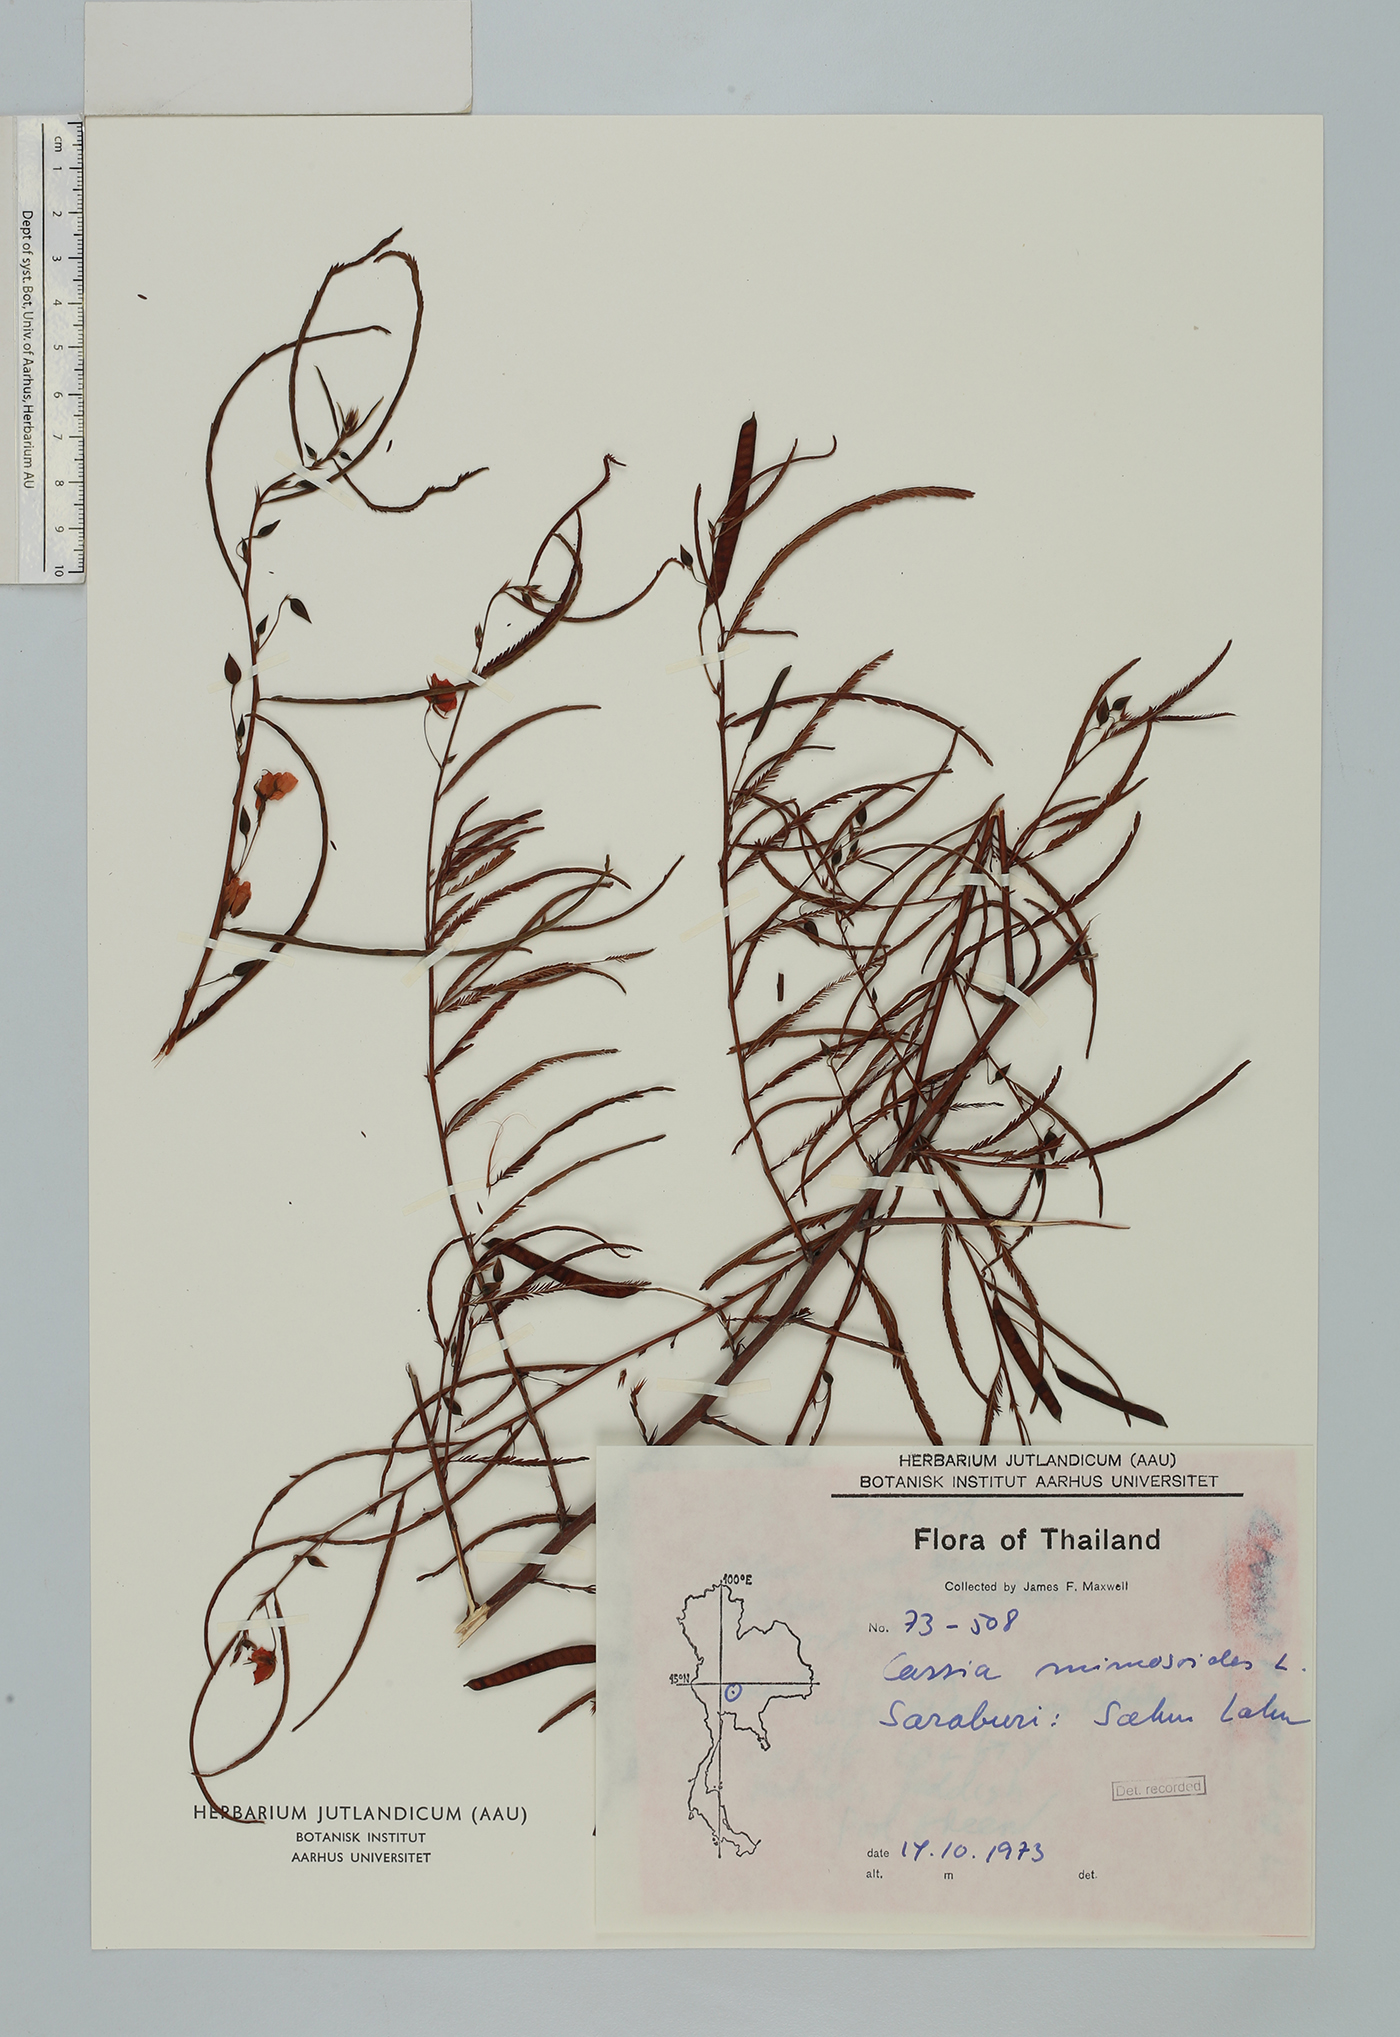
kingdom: Plantae
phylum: Tracheophyta
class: Magnoliopsida
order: Fabales
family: Fabaceae
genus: Chamaecrista
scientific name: Chamaecrista mimosoides
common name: Fish-bone cassia
